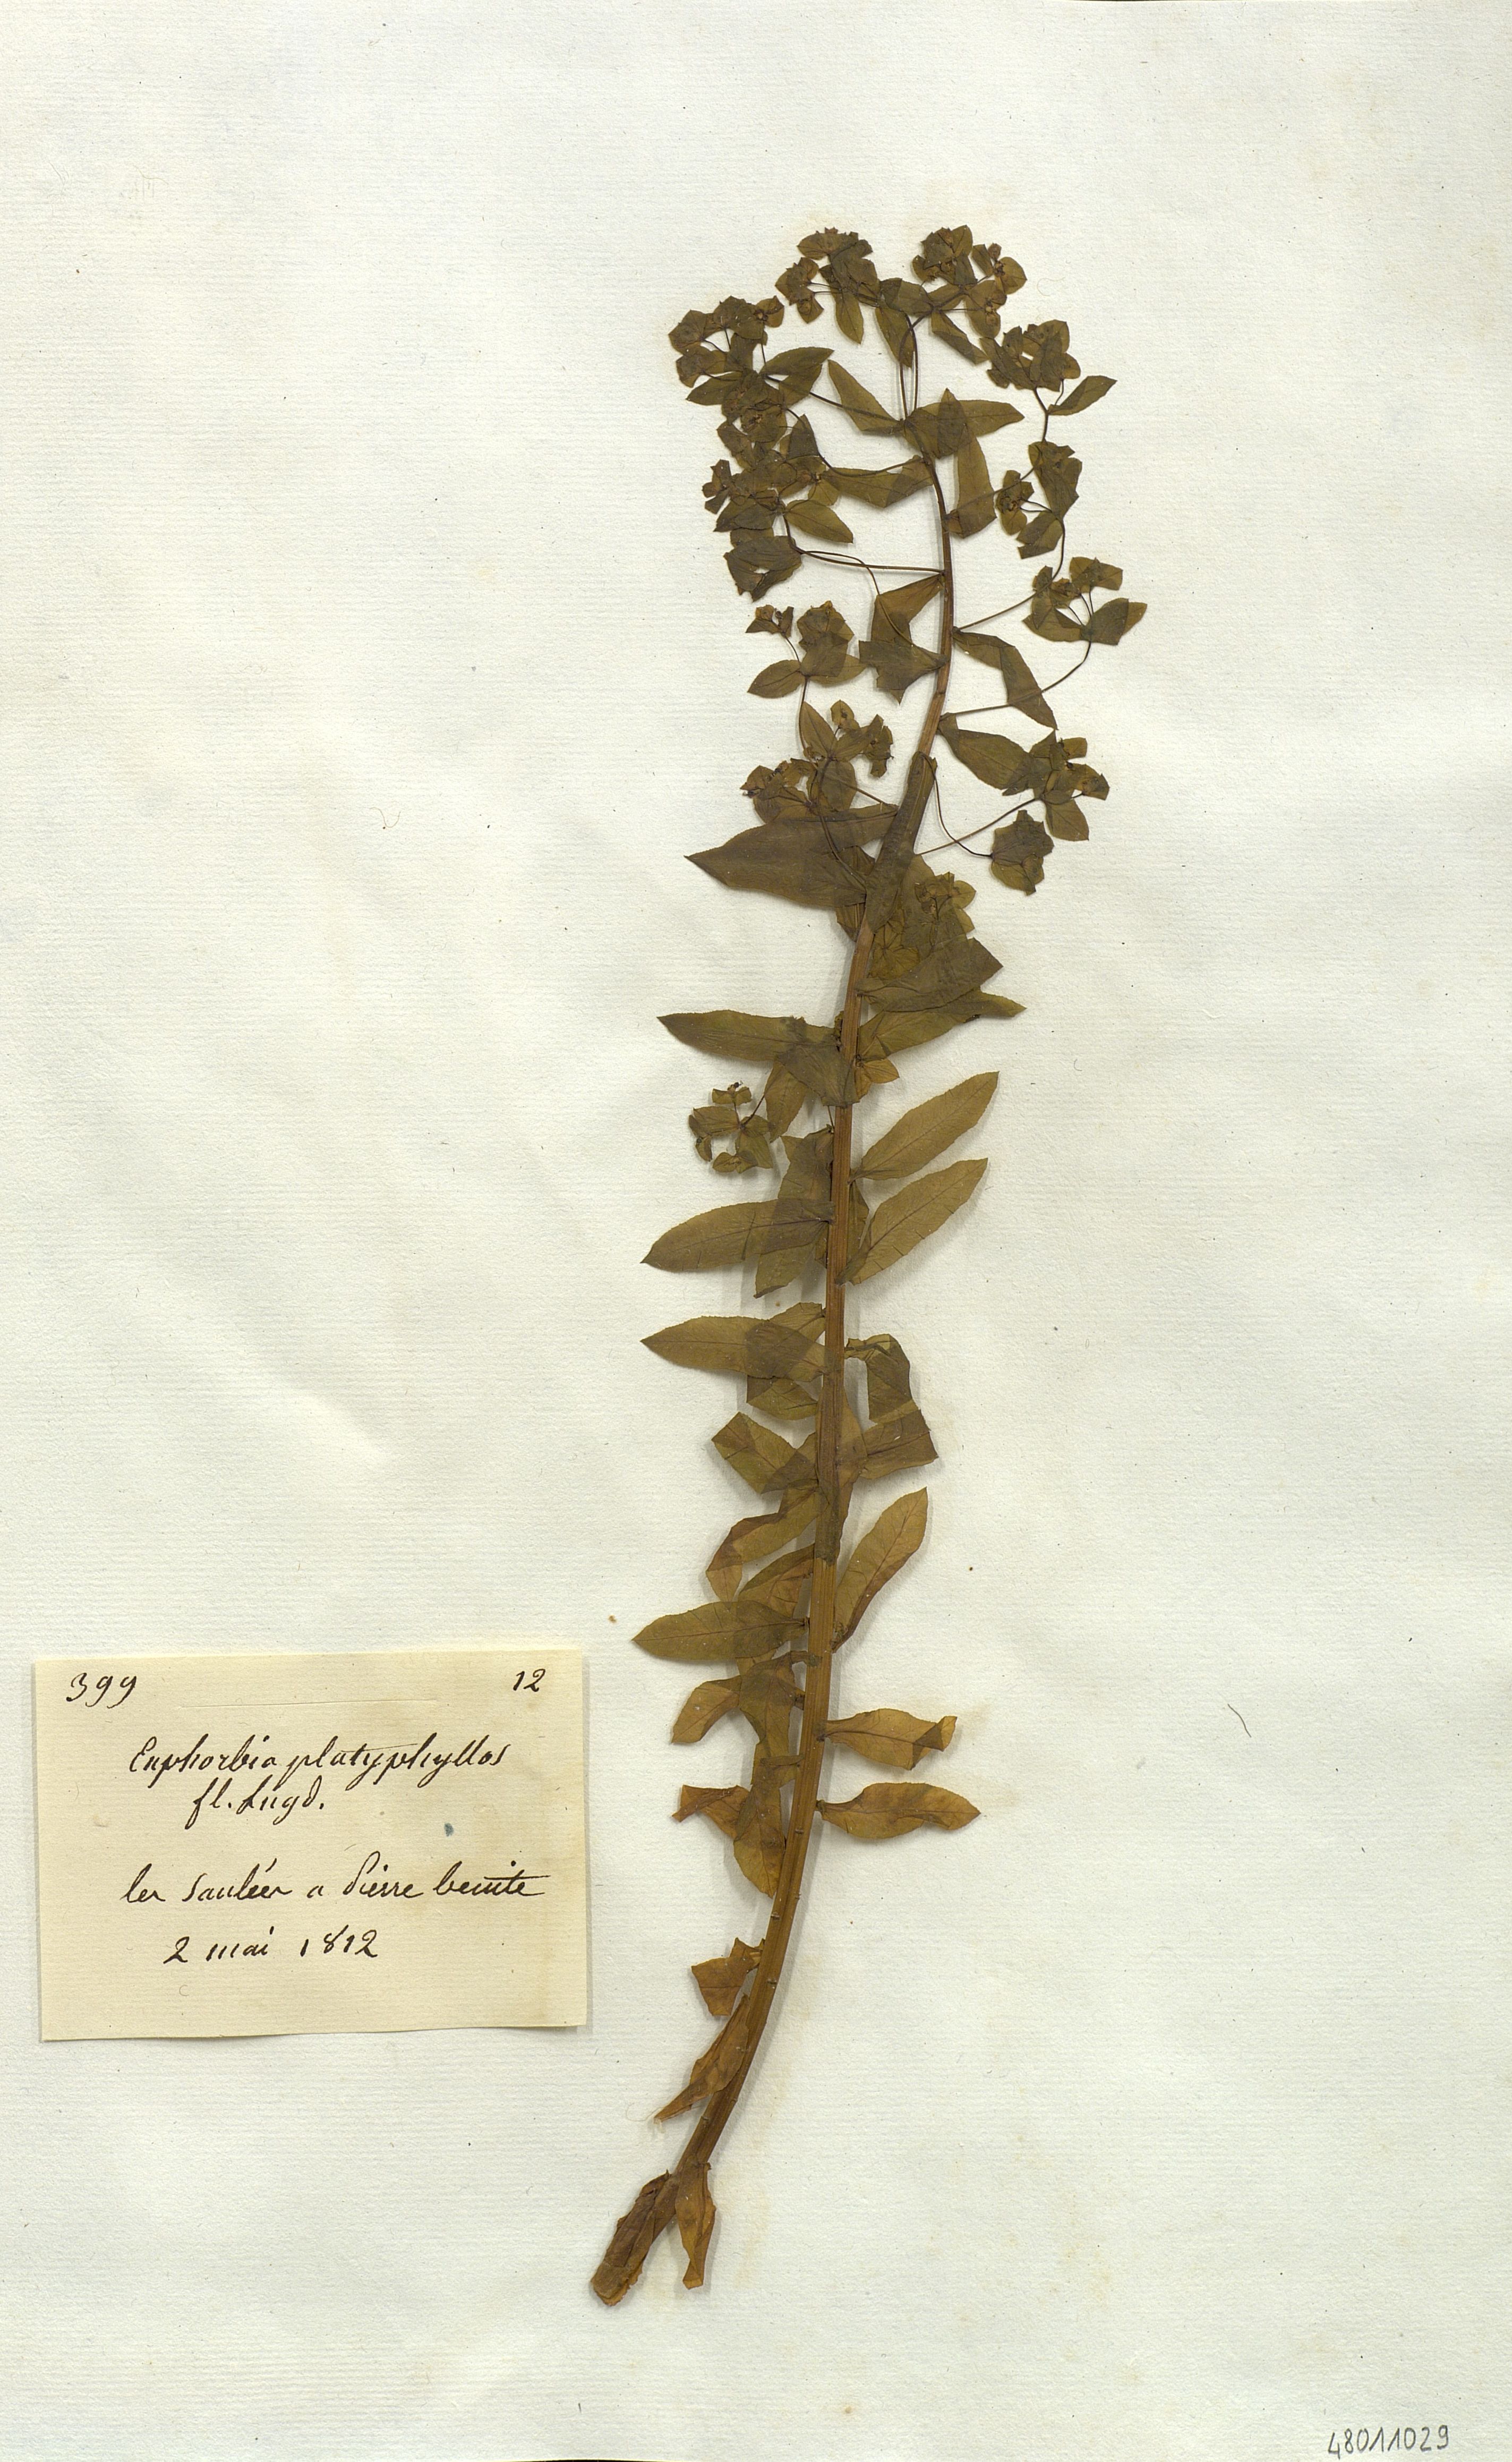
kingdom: Plantae
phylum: Tracheophyta
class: Magnoliopsida
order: Malpighiales
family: Euphorbiaceae
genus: Euphorbia
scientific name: Euphorbia platyphyllos
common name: Broad-leaved spurge
